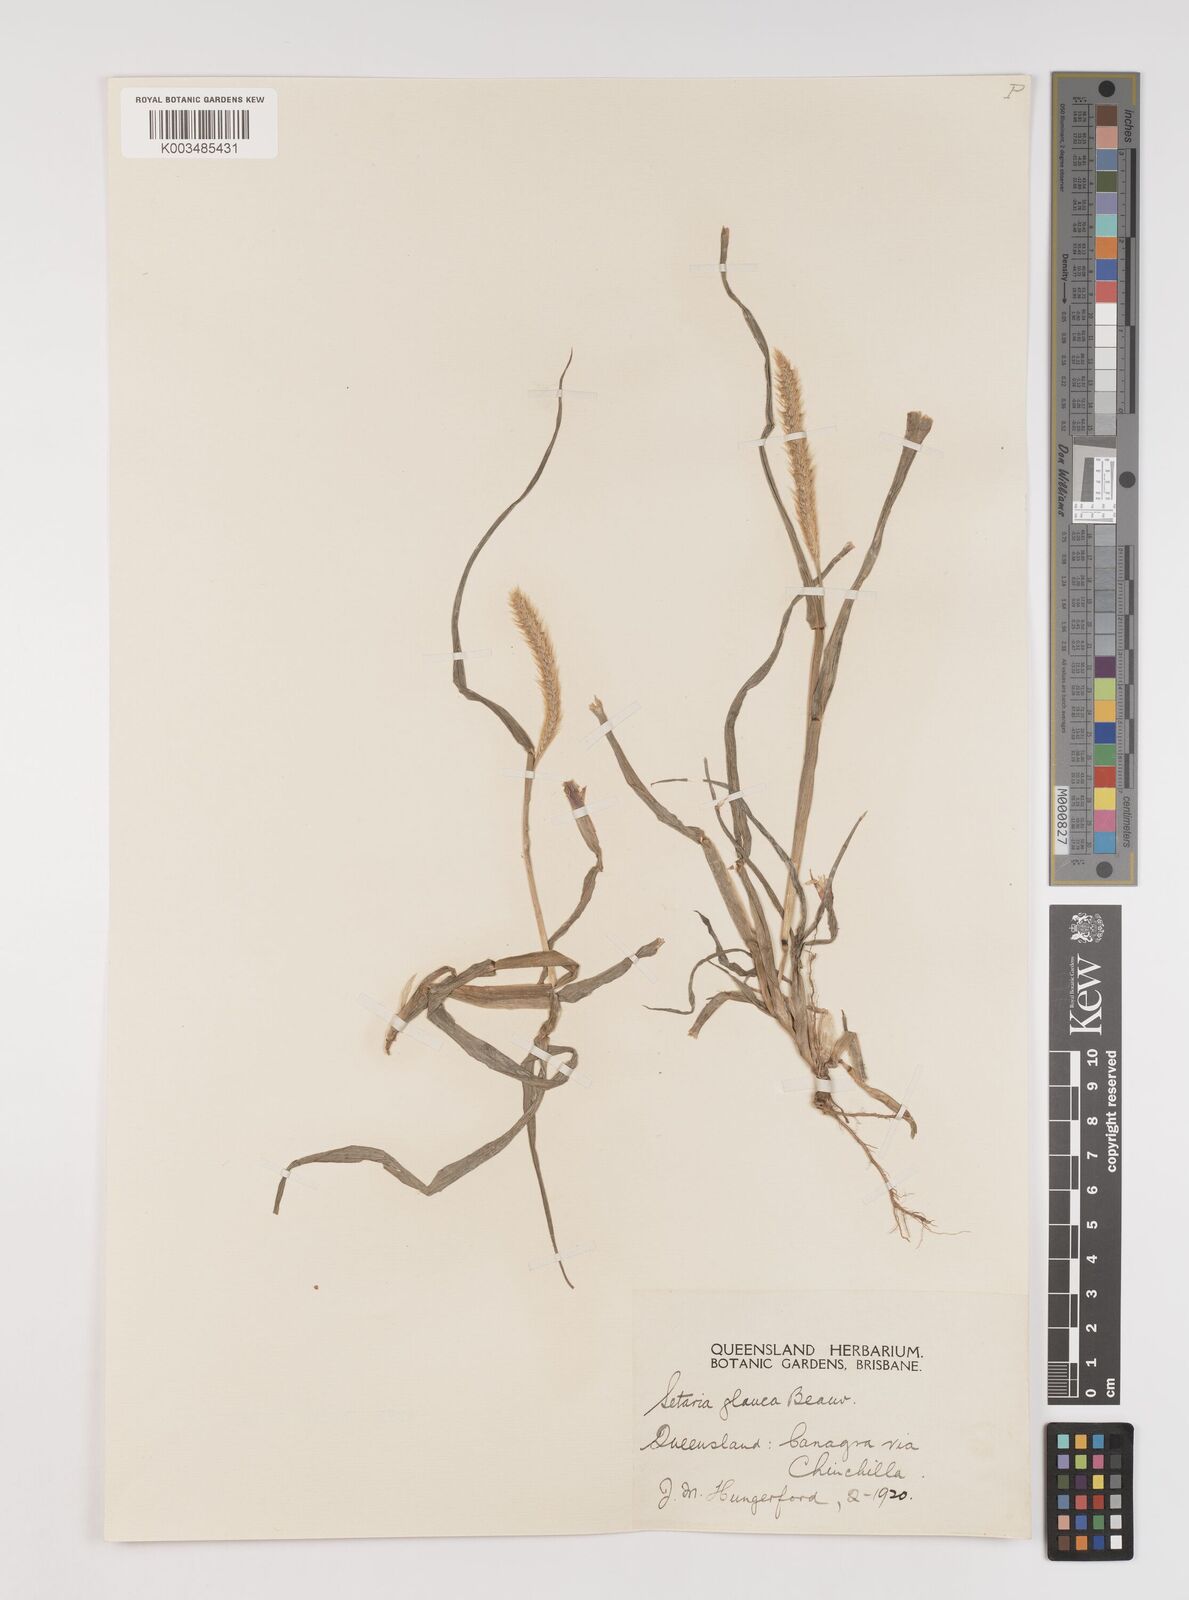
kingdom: Plantae
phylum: Tracheophyta
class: Liliopsida
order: Poales
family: Poaceae
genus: Setaria
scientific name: Setaria pumila
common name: Yellow bristle-grass
